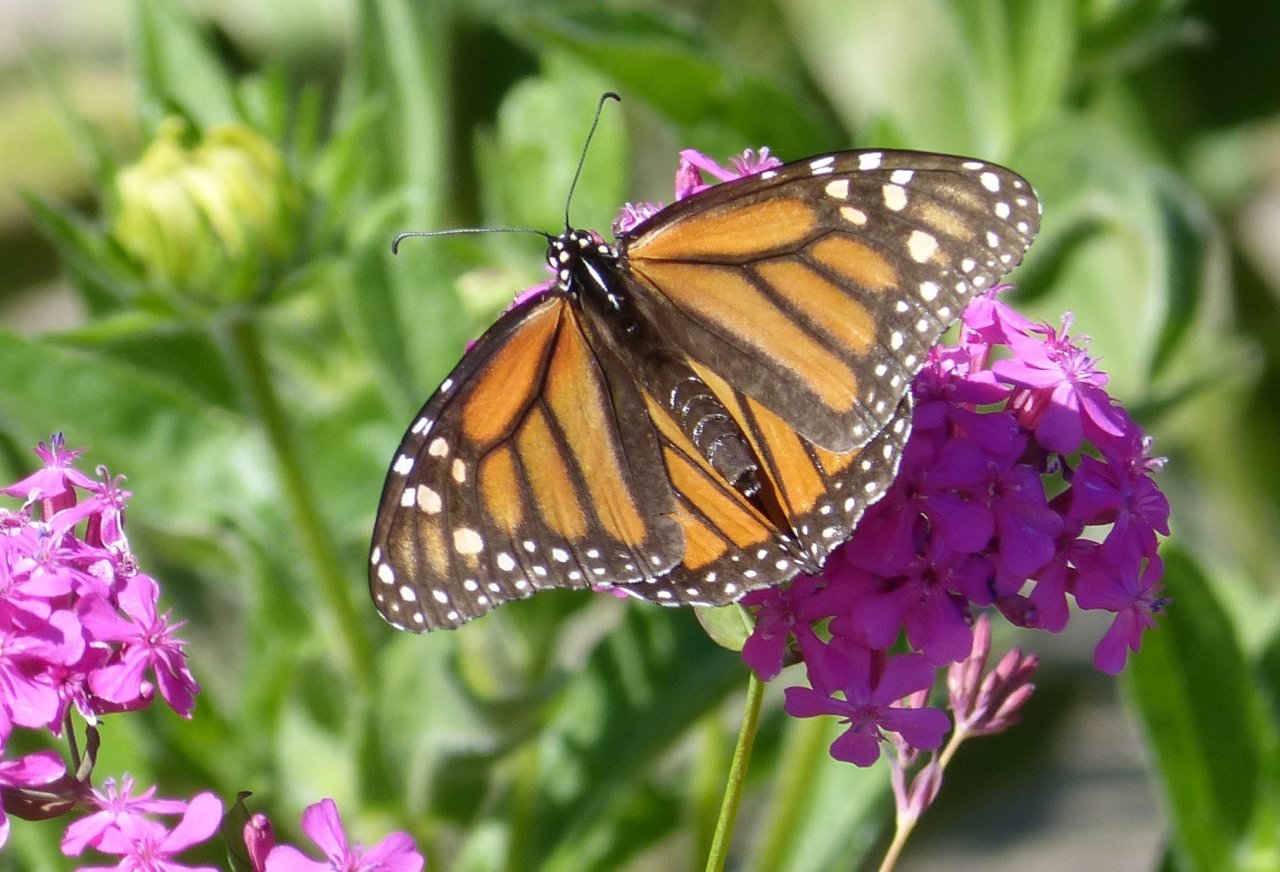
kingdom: Animalia
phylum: Arthropoda
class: Insecta
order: Lepidoptera
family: Nymphalidae
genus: Danaus
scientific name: Danaus plexippus
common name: Monarch
